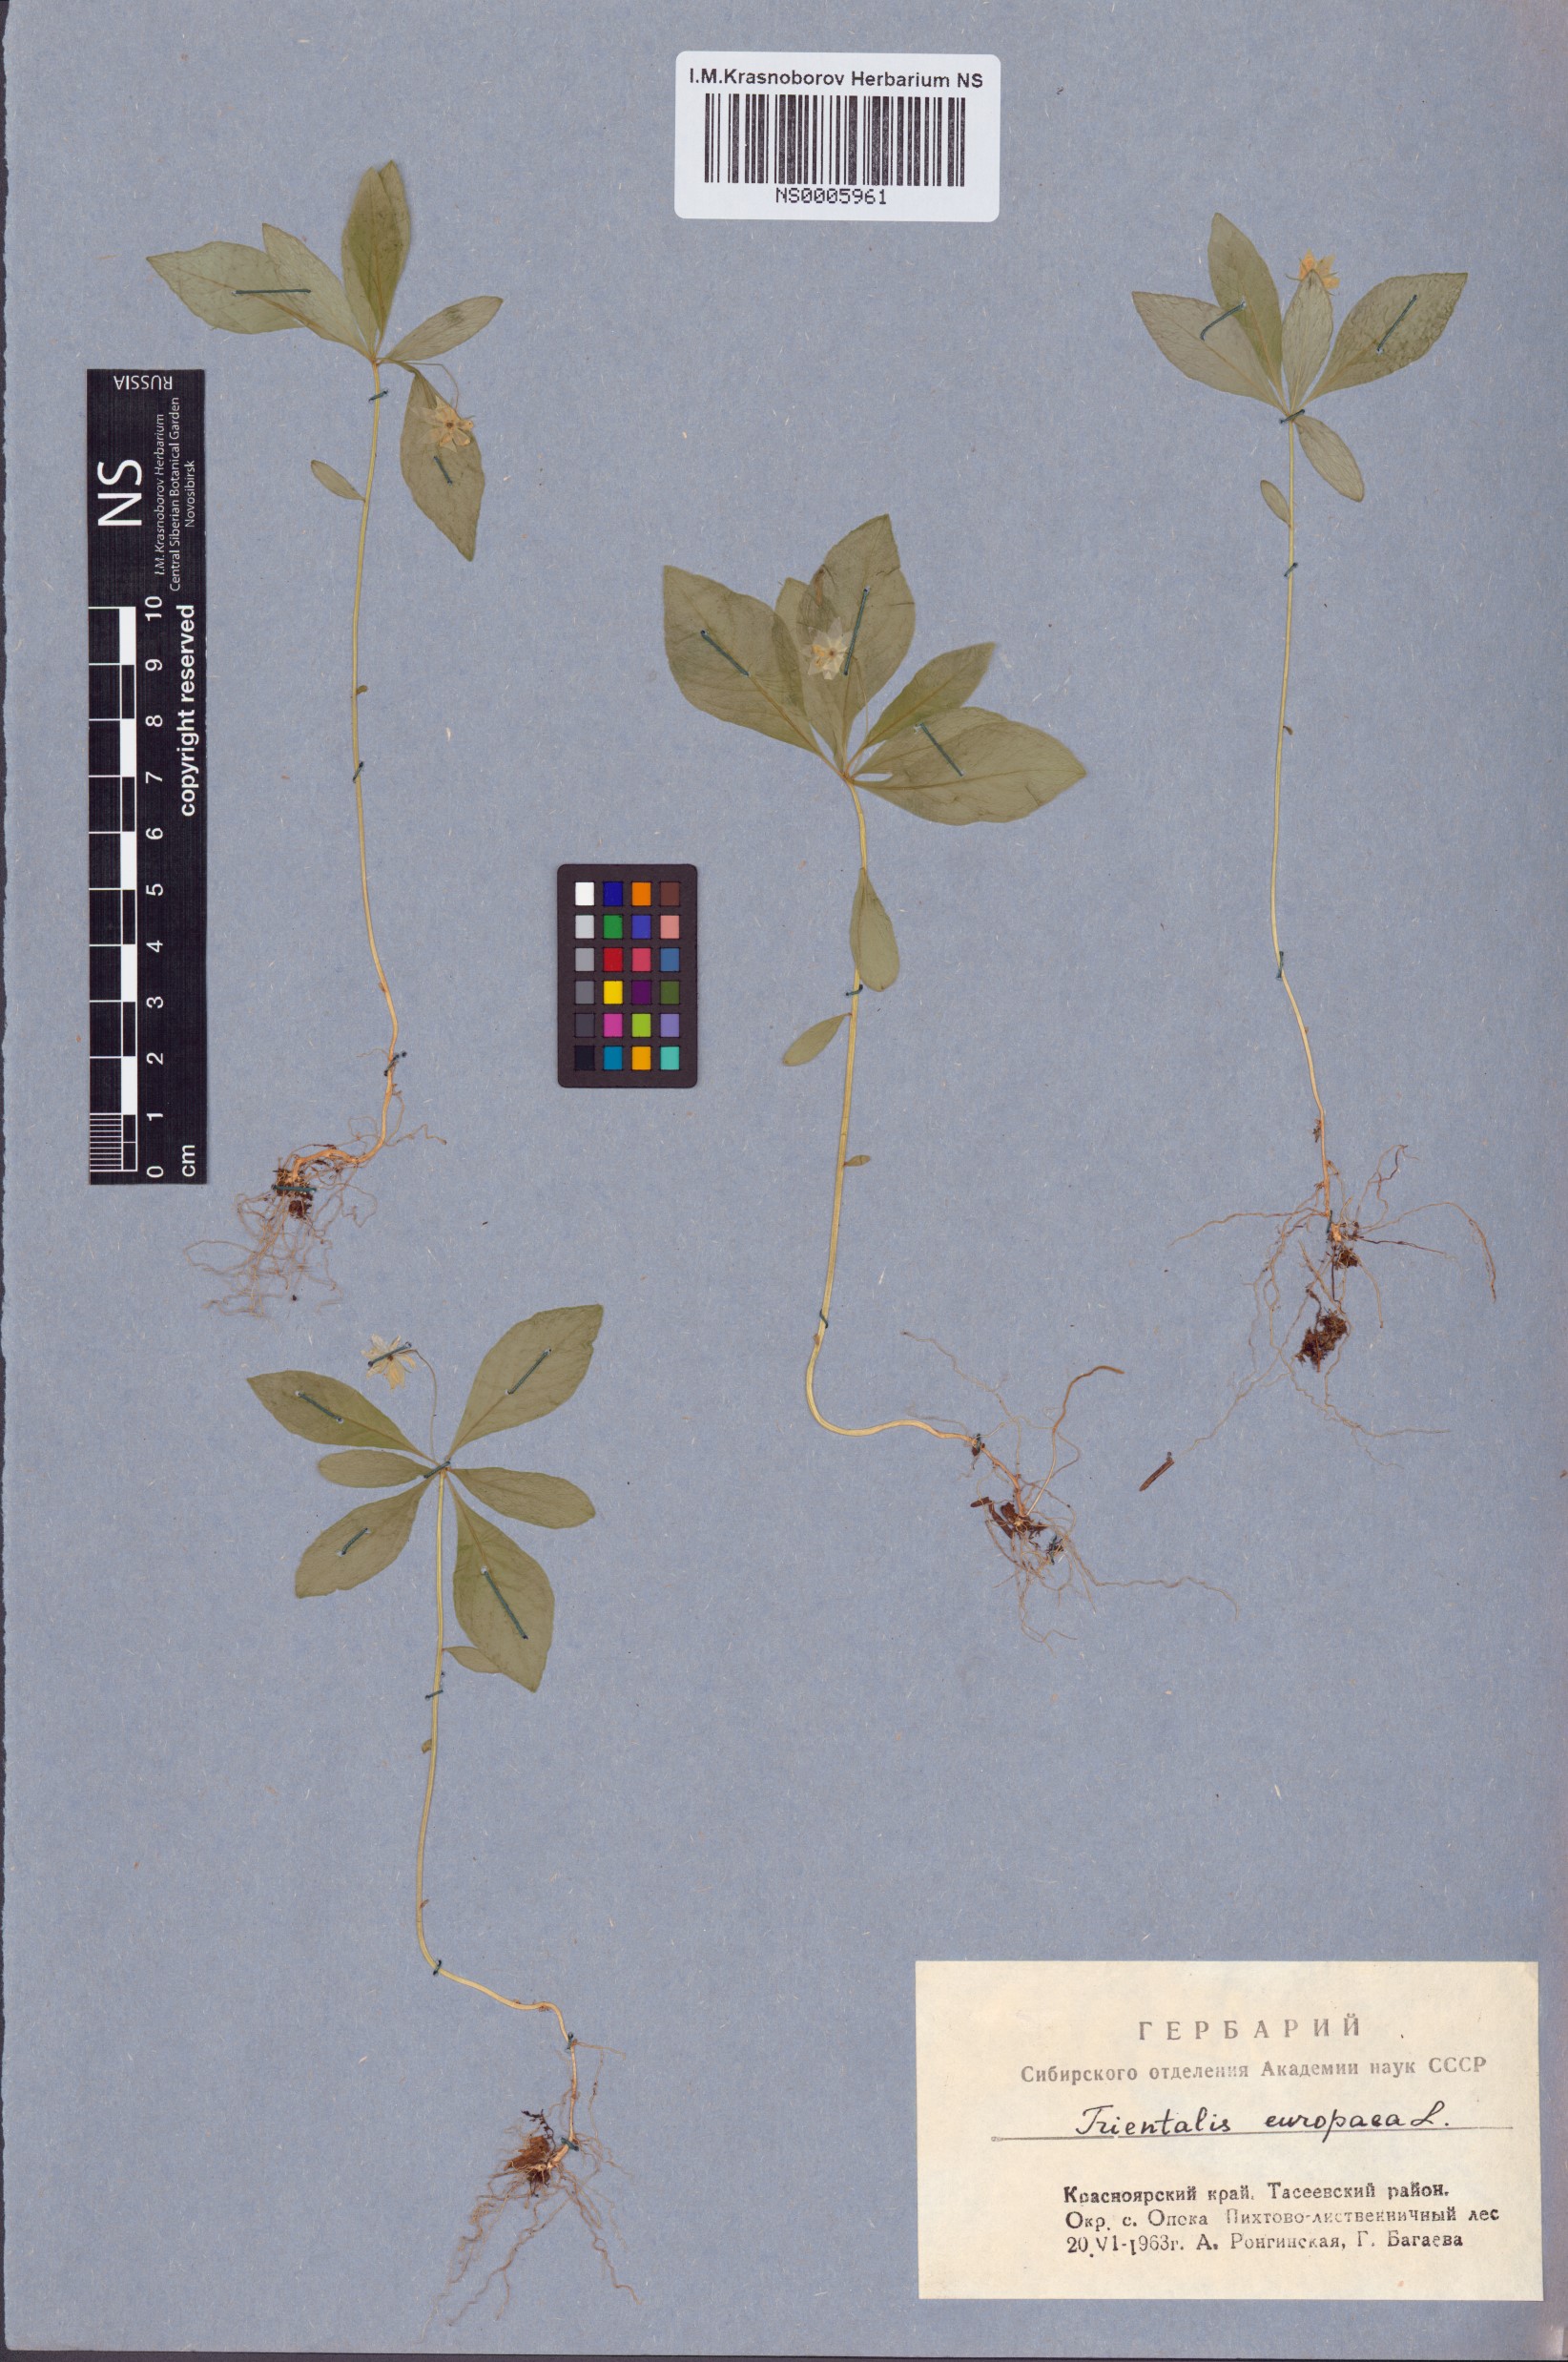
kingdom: Plantae
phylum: Tracheophyta
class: Magnoliopsida
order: Ericales
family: Primulaceae
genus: Lysimachia
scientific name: Lysimachia europaea
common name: Arctic starflower
